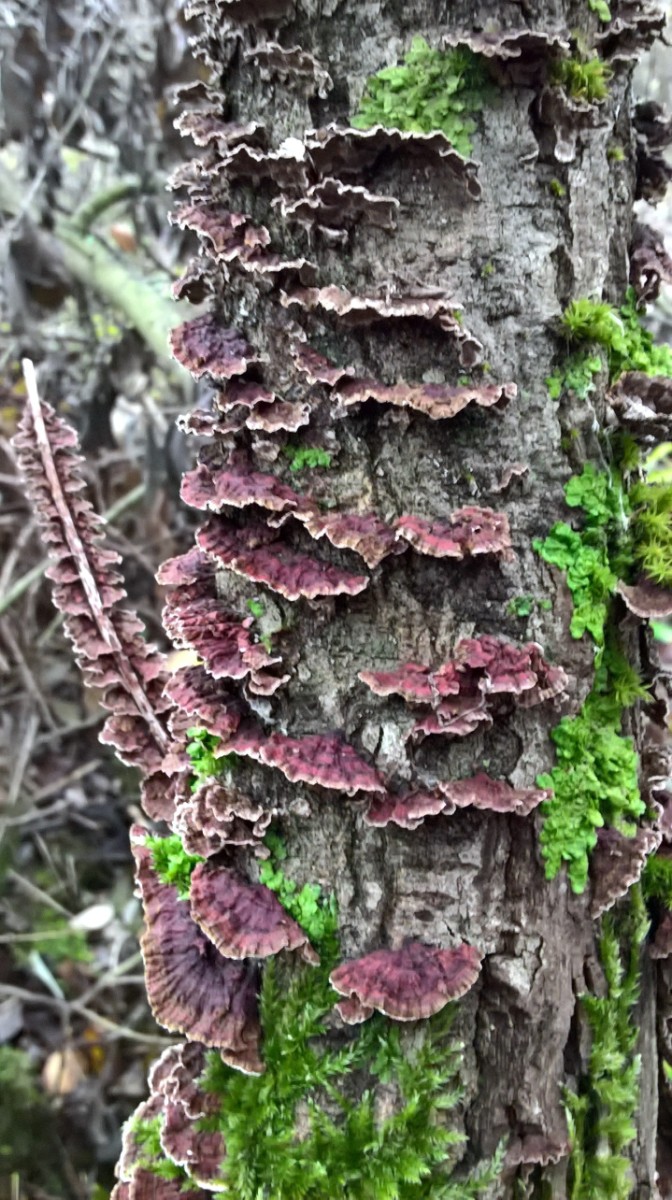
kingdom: Fungi
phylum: Basidiomycota
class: Agaricomycetes
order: Hymenochaetales
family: Hymenochaetaceae
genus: Hydnoporia
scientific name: Hydnoporia tabacina
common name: tobaksbrun ruslædersvamp
